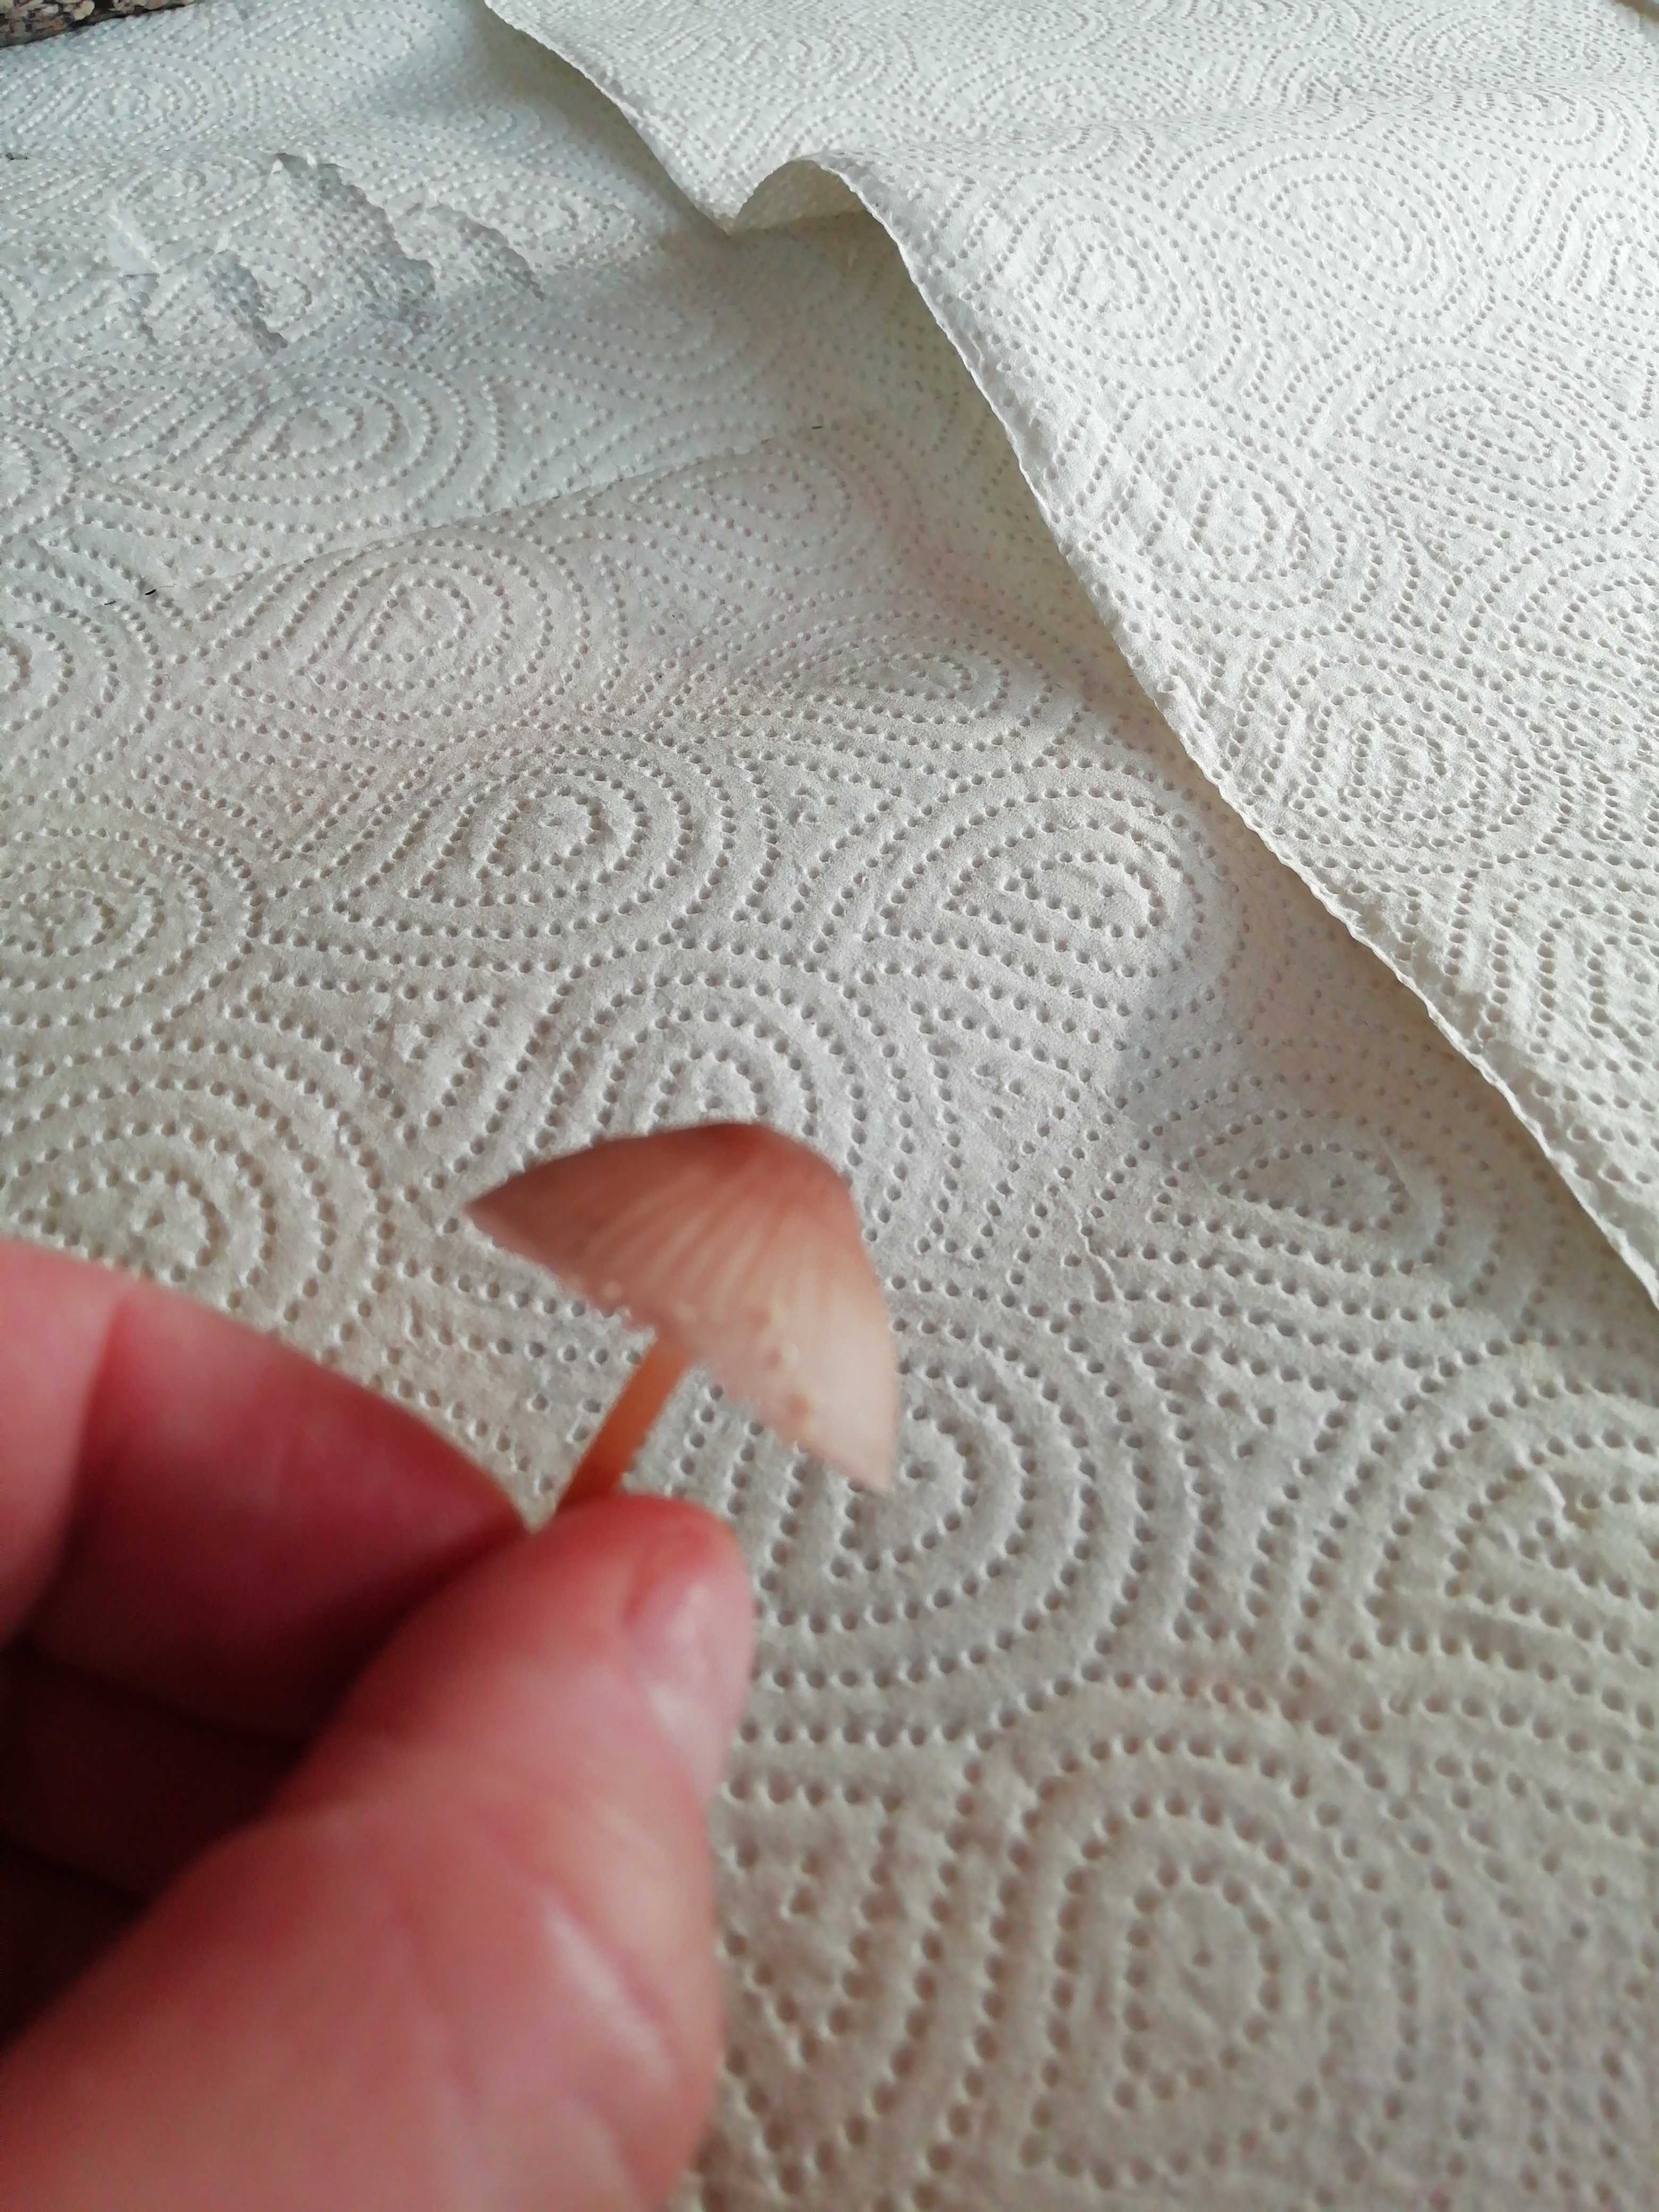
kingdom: Fungi
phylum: Basidiomycota
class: Agaricomycetes
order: Agaricales
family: Mycenaceae
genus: Mycena
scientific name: Mycena
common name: huesvamp
